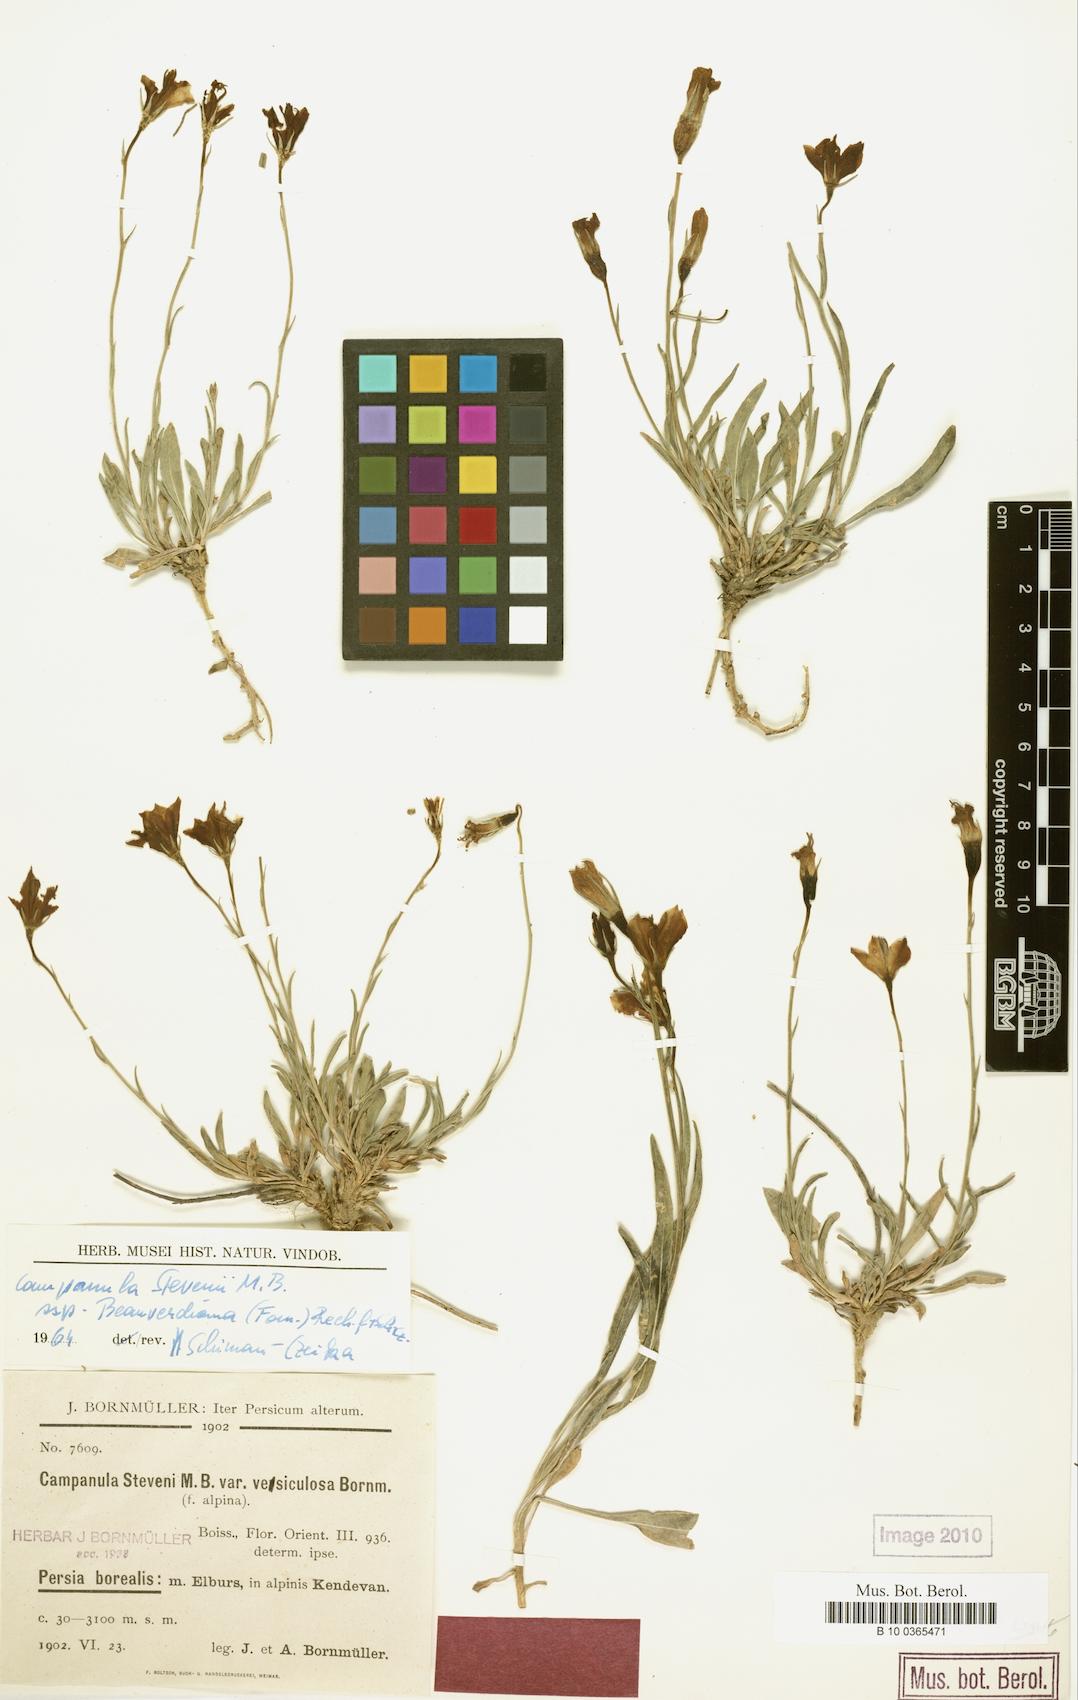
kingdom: Plantae
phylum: Tracheophyta
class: Magnoliopsida
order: Asterales
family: Campanulaceae
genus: Campanula
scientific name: Campanula stevenii
